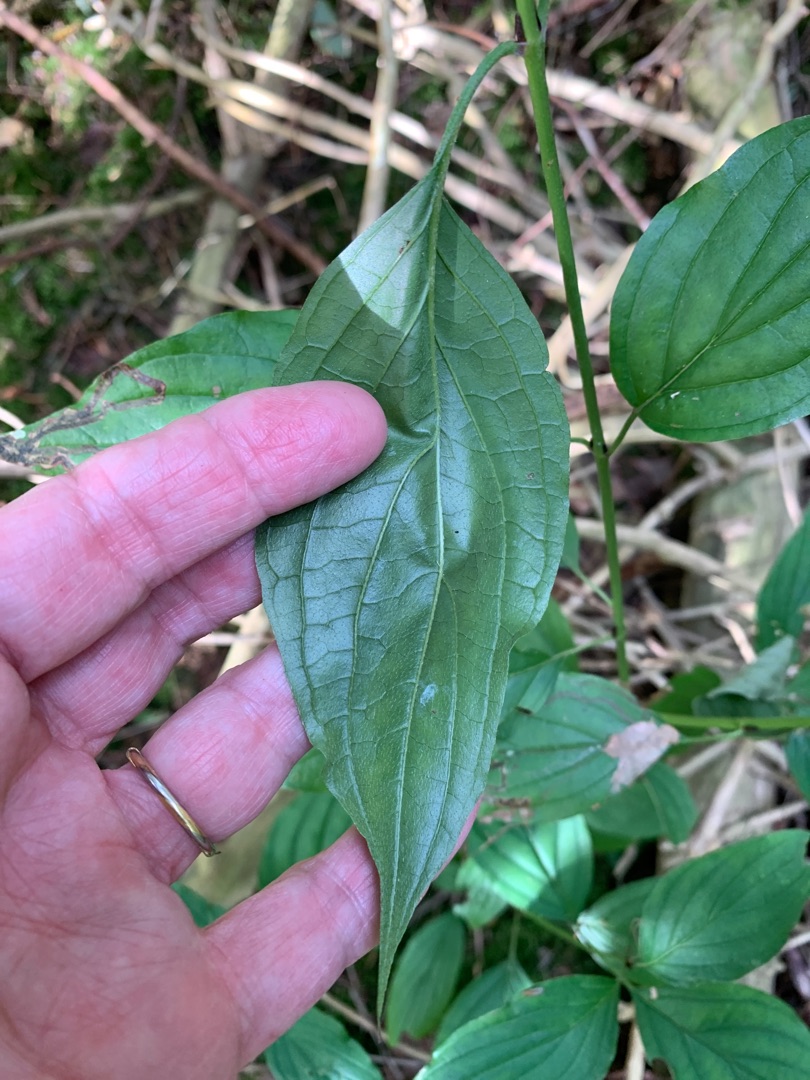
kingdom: Plantae
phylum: Tracheophyta
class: Magnoliopsida
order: Cornales
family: Cornaceae
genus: Cornus
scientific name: Cornus sericea
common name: Krybende kornel
